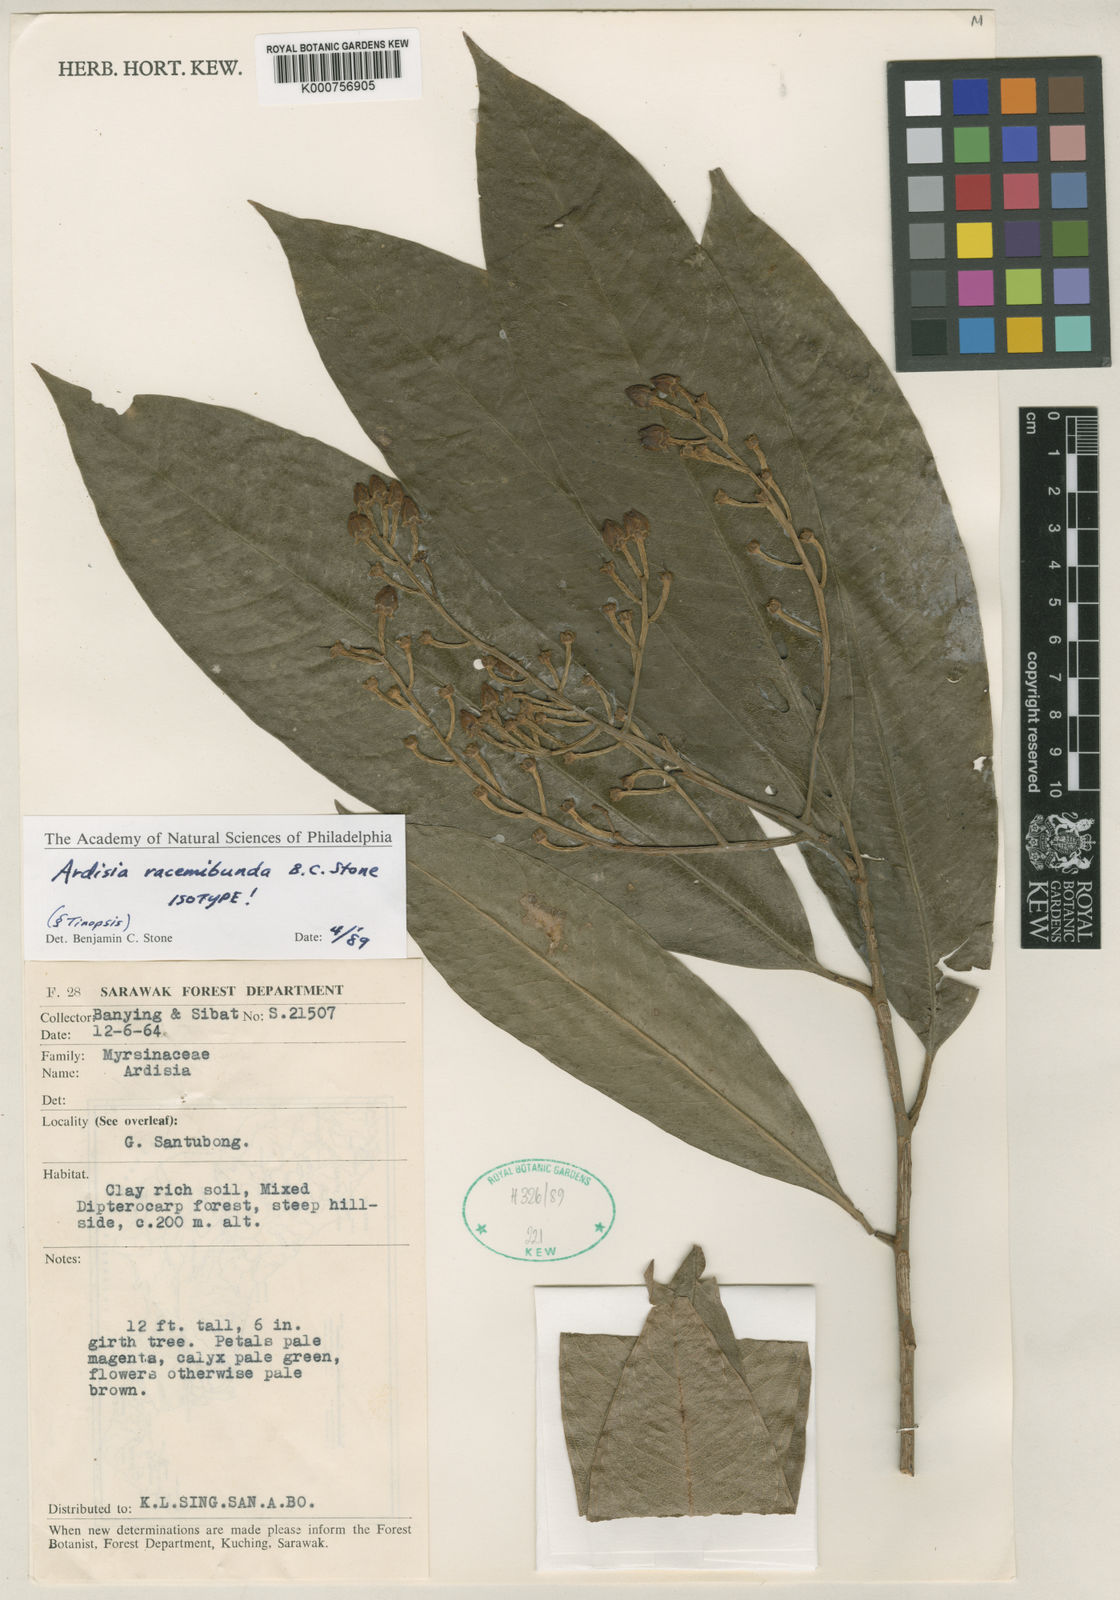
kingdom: Plantae
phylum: Tracheophyta
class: Magnoliopsida
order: Ericales
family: Primulaceae
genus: Ardisia
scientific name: Ardisia
